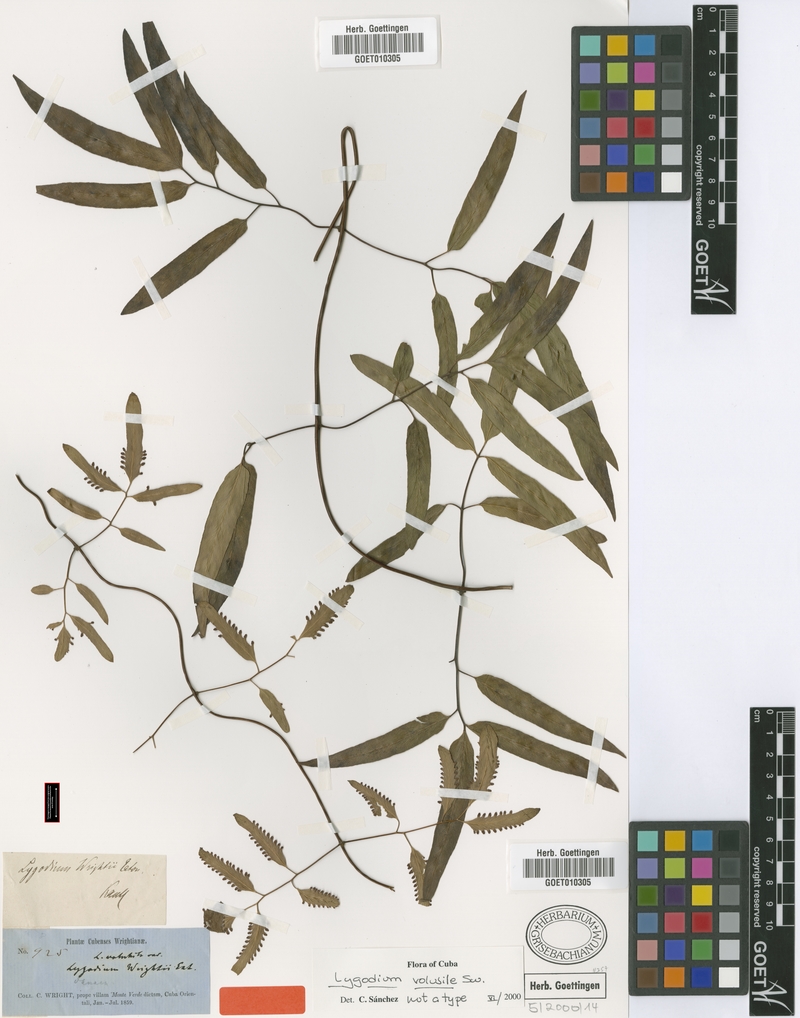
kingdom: Plantae
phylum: Tracheophyta
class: Polypodiopsida
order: Schizaeales
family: Lygodiaceae
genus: Lygodium
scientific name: Lygodium volubile
